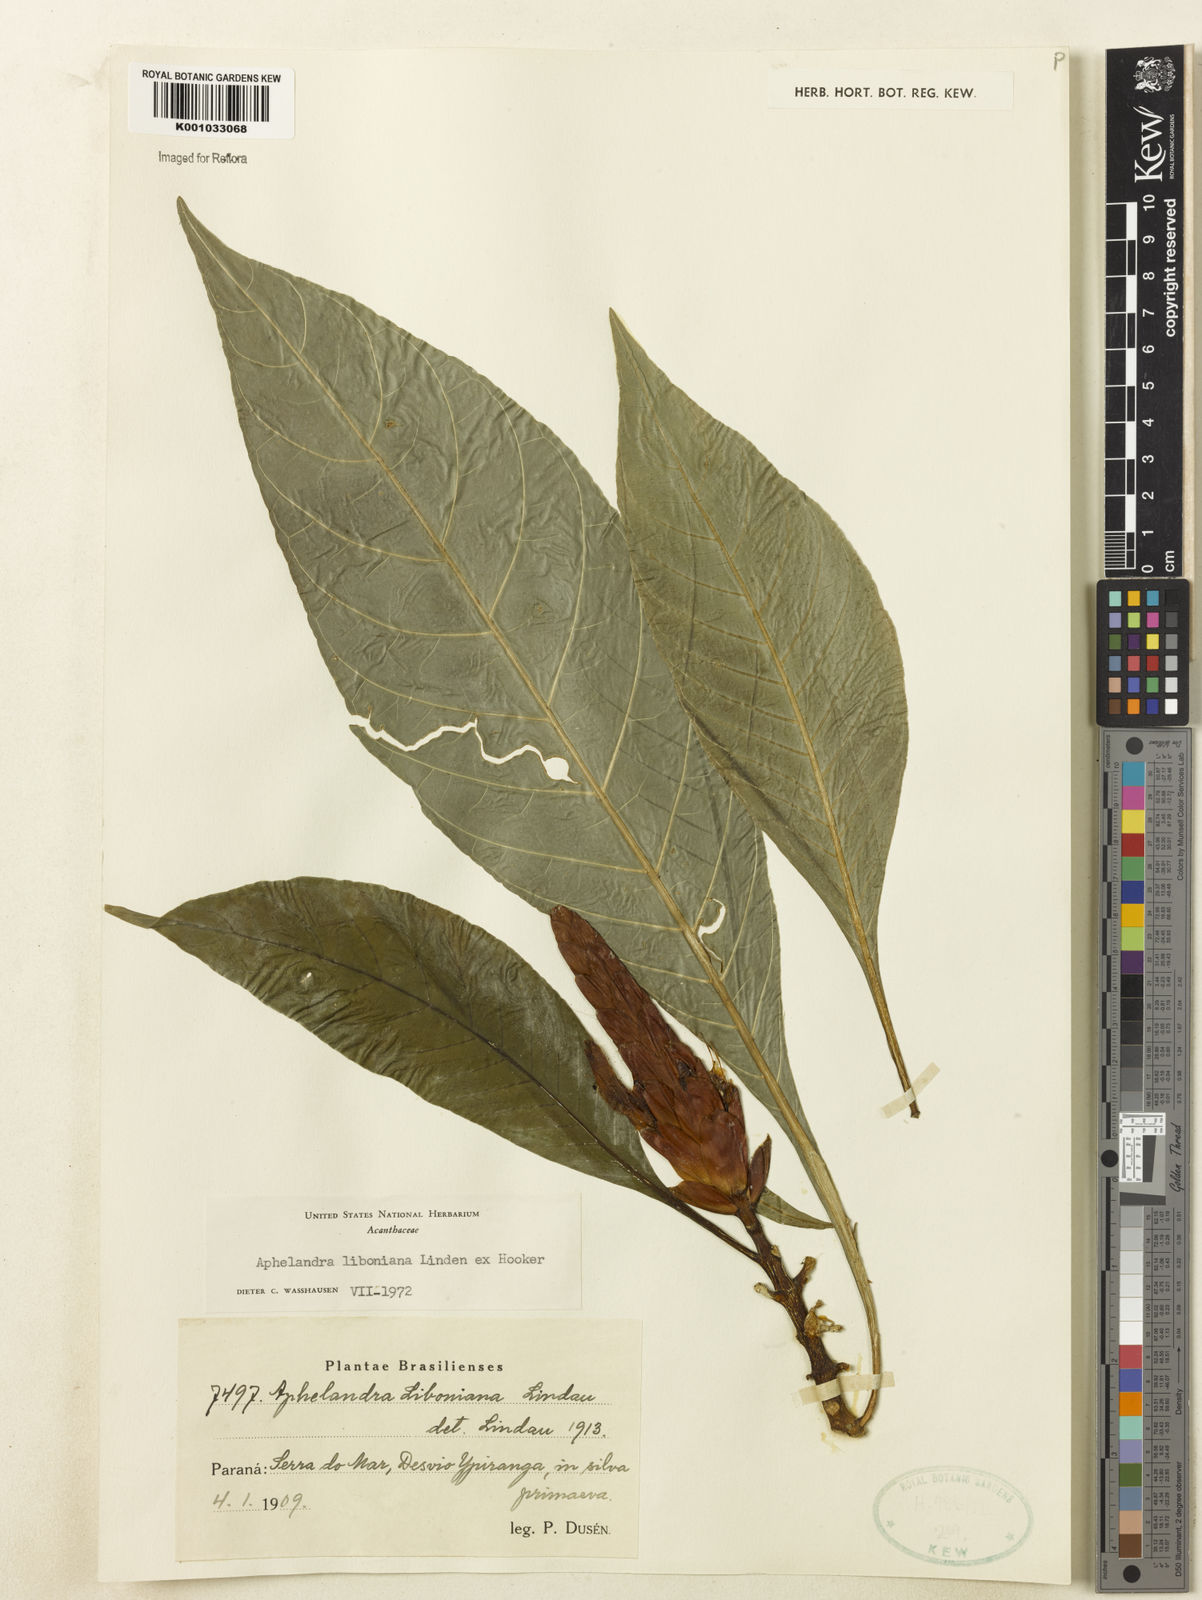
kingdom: Plantae
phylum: Tracheophyta
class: Magnoliopsida
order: Lamiales
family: Acanthaceae
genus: Aphelandra
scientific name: Aphelandra liboniana
